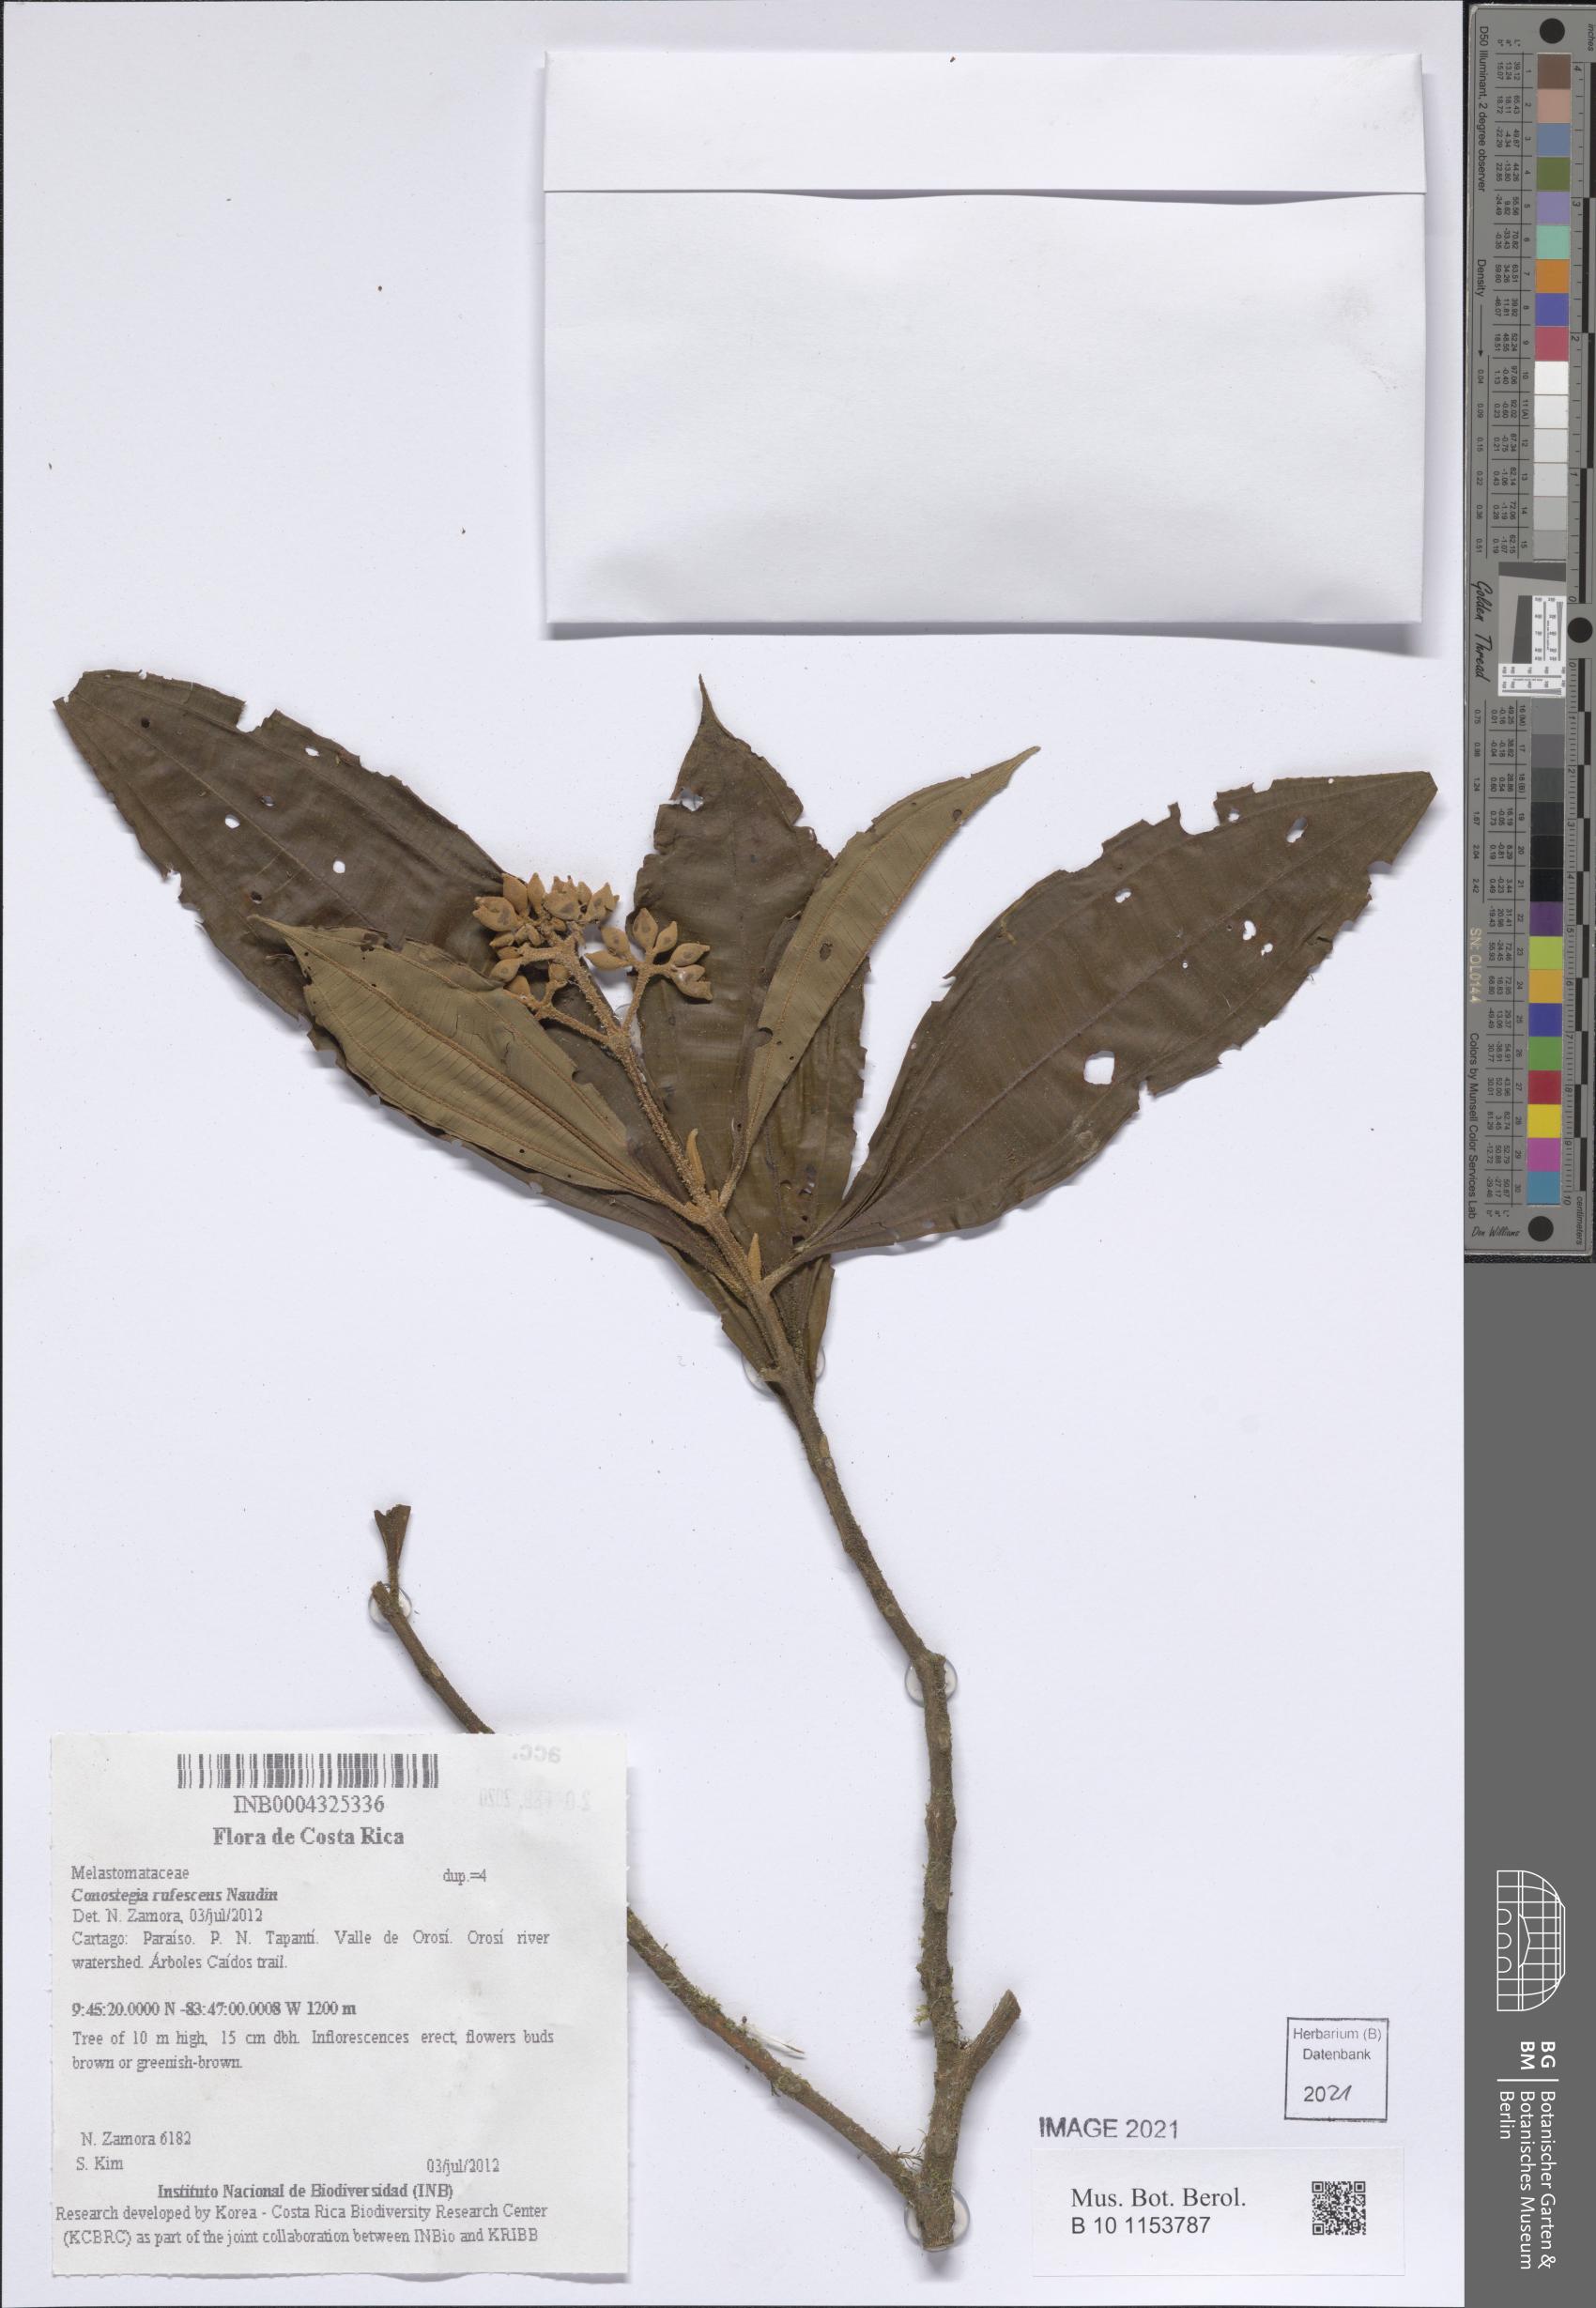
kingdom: Plantae
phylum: Tracheophyta
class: Magnoliopsida
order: Myrtales
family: Melastomataceae
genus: Miconia
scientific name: Miconia conorufescens
